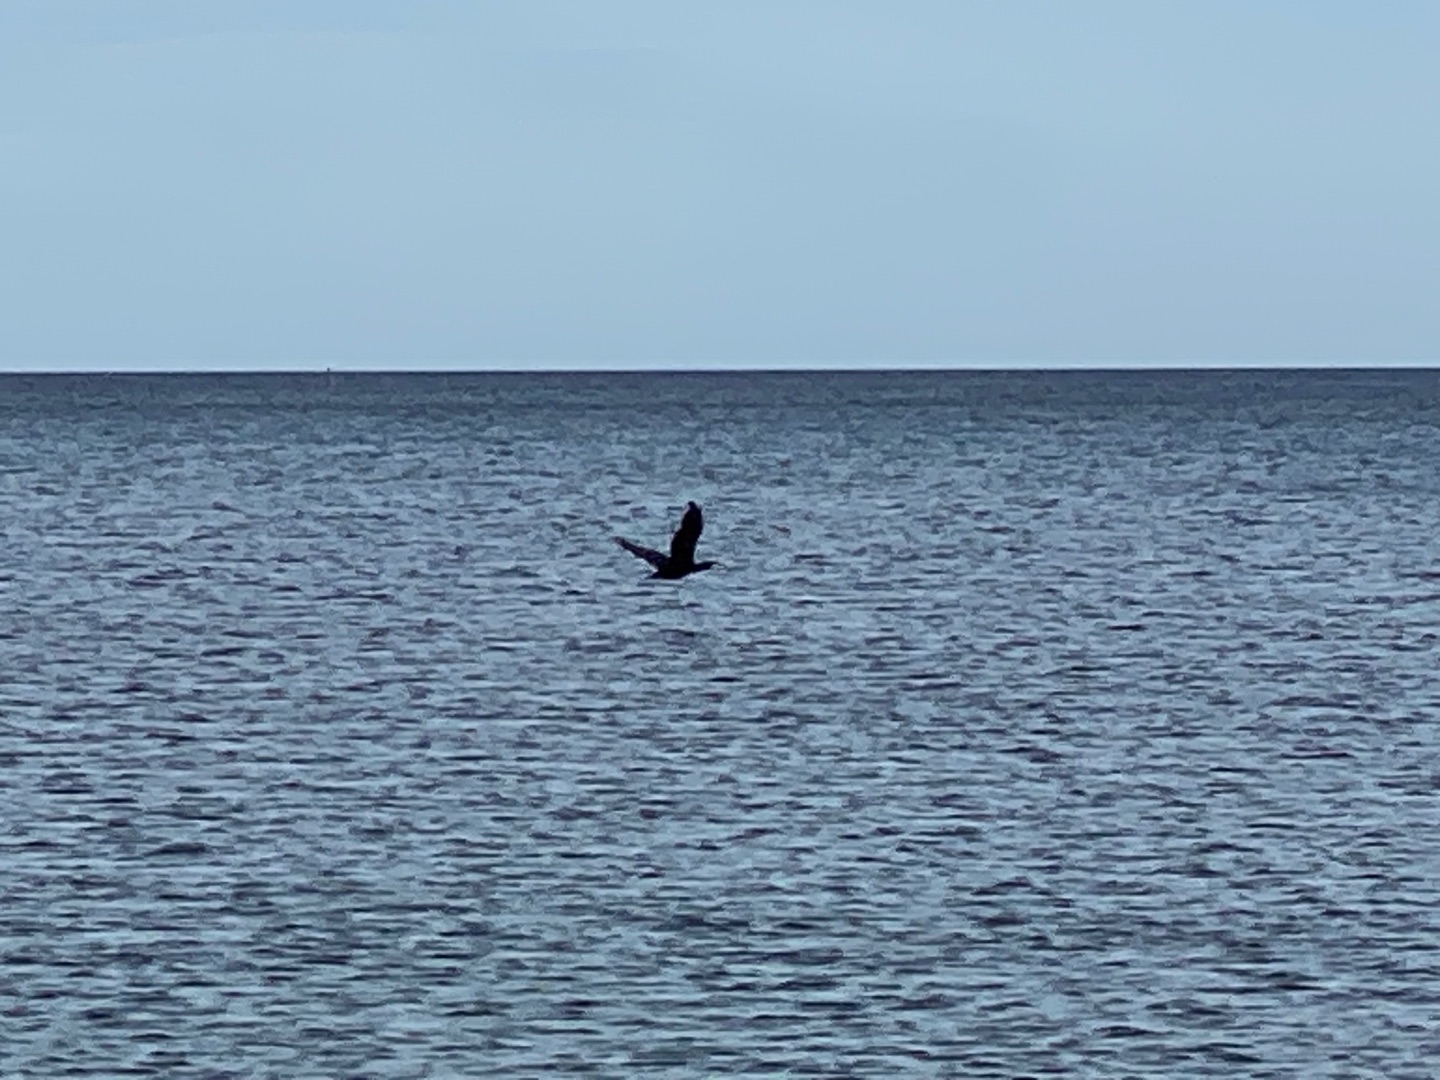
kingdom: Animalia
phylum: Chordata
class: Aves
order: Suliformes
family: Phalacrocoracidae
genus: Phalacrocorax
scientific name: Phalacrocorax carbo
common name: Skarv
